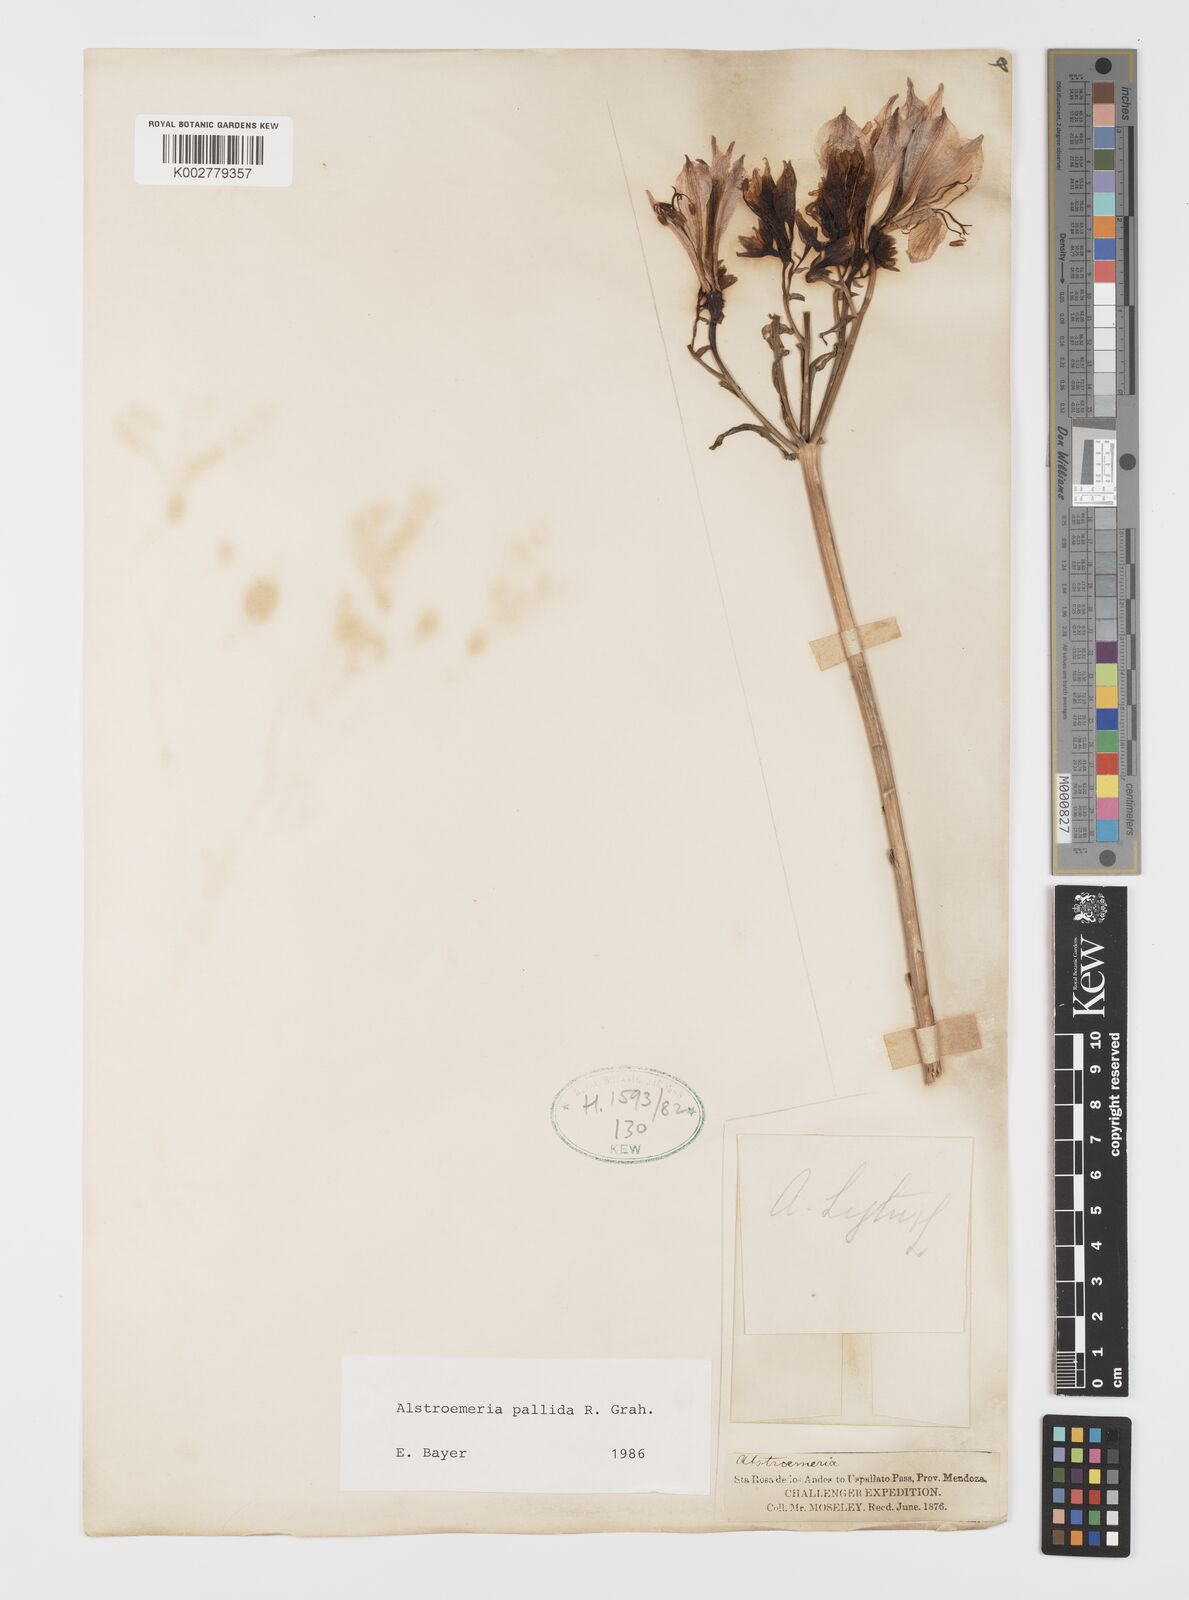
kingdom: Plantae
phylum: Tracheophyta
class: Liliopsida
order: Liliales
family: Alstroemeriaceae
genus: Alstroemeria
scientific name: Alstroemeria pallida
